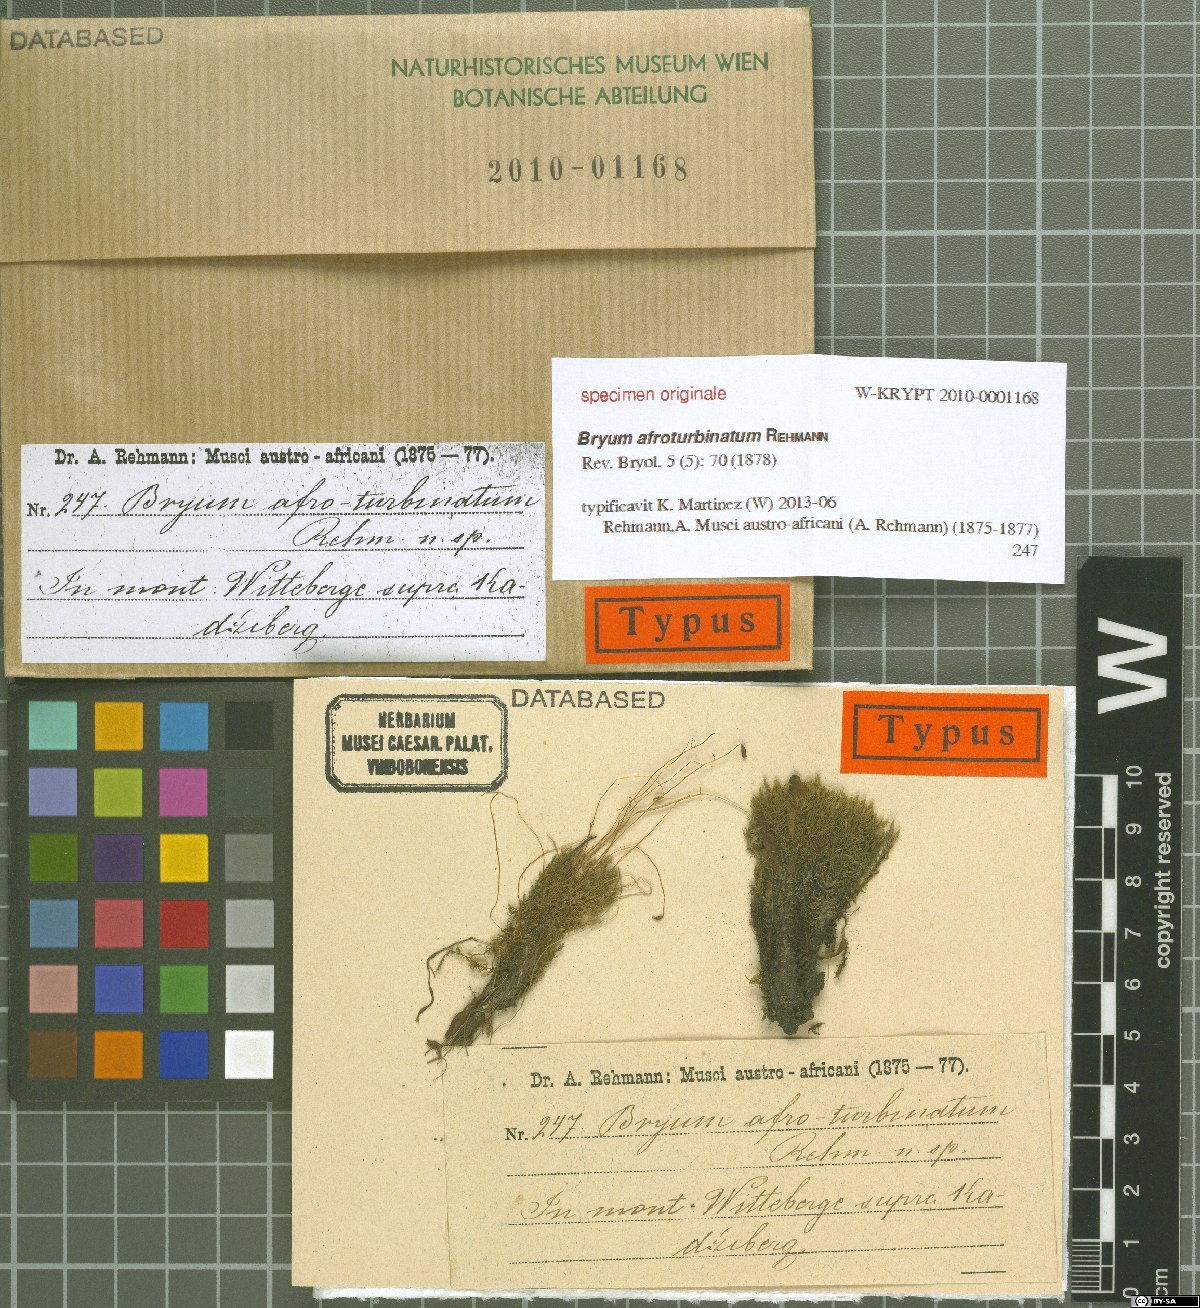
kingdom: Plantae
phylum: Bryophyta
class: Bryopsida
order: Bryales
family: Bryaceae
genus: Bryum
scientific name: Bryum
